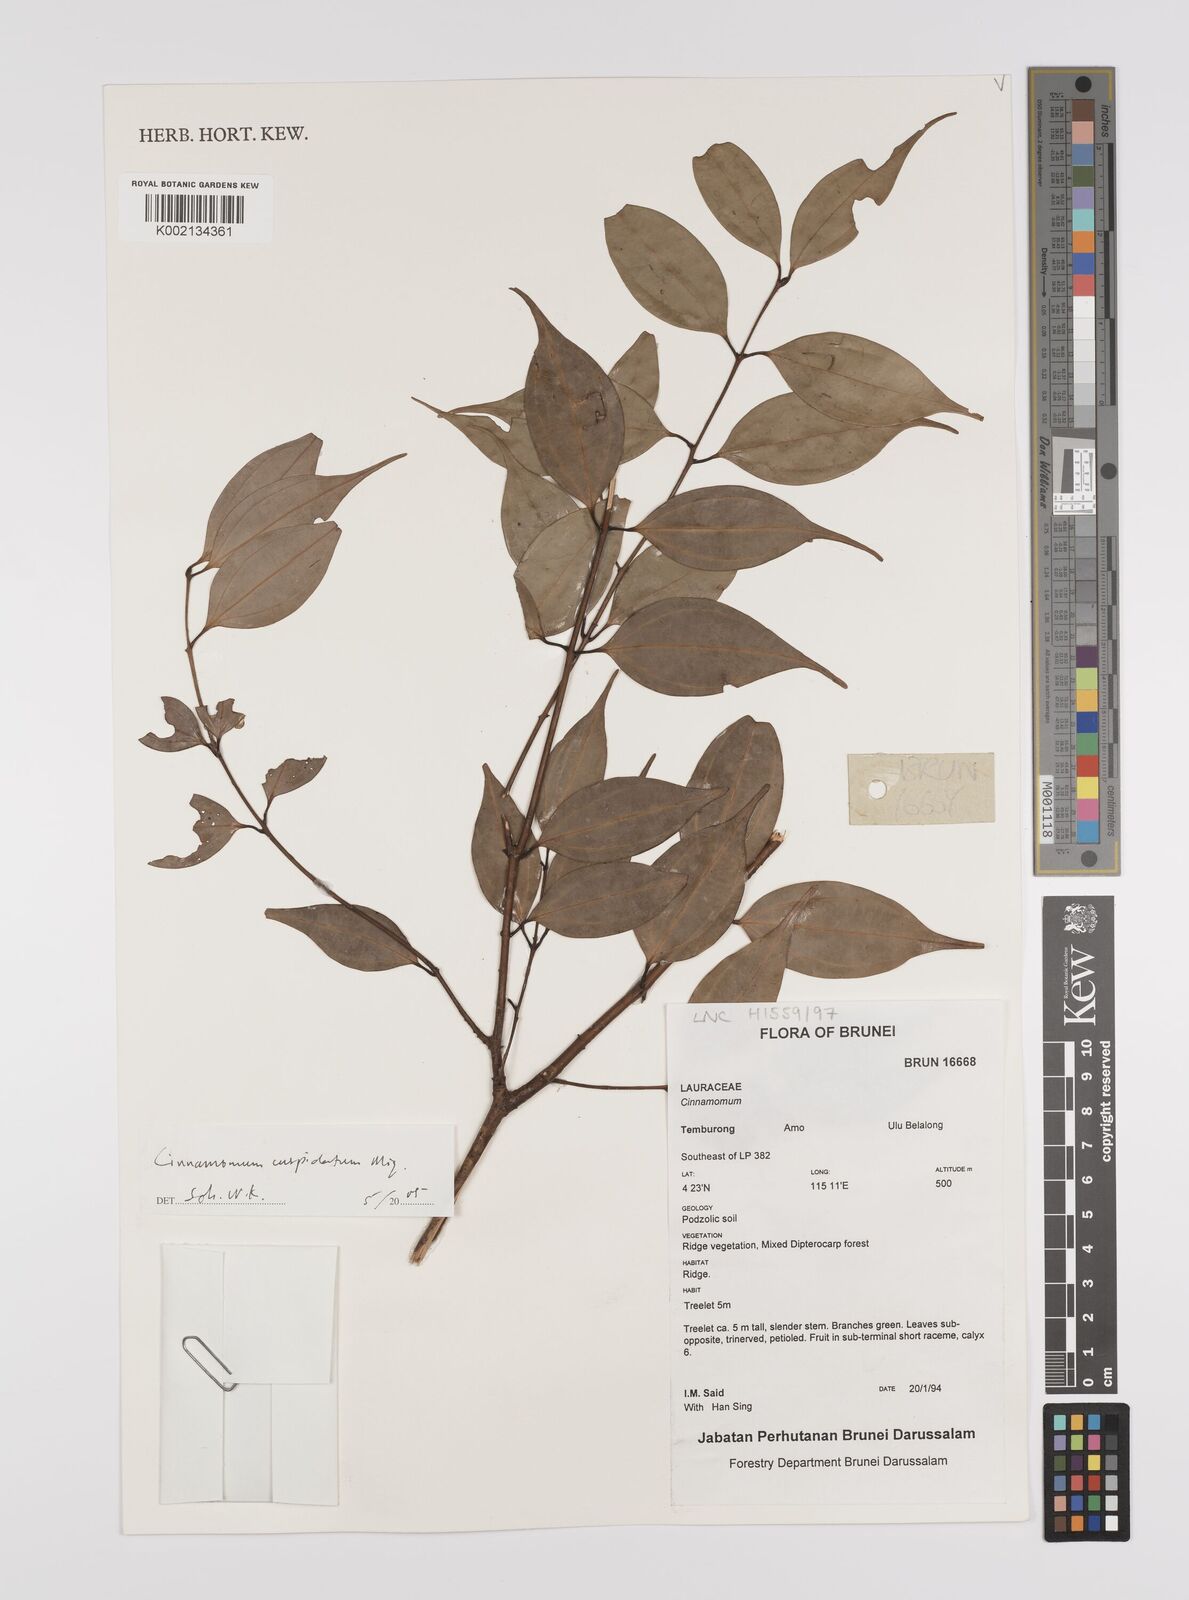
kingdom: Plantae
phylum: Tracheophyta
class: Magnoliopsida
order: Laurales
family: Lauraceae
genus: Cinnamomum
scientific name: Cinnamomum cuspidatum
